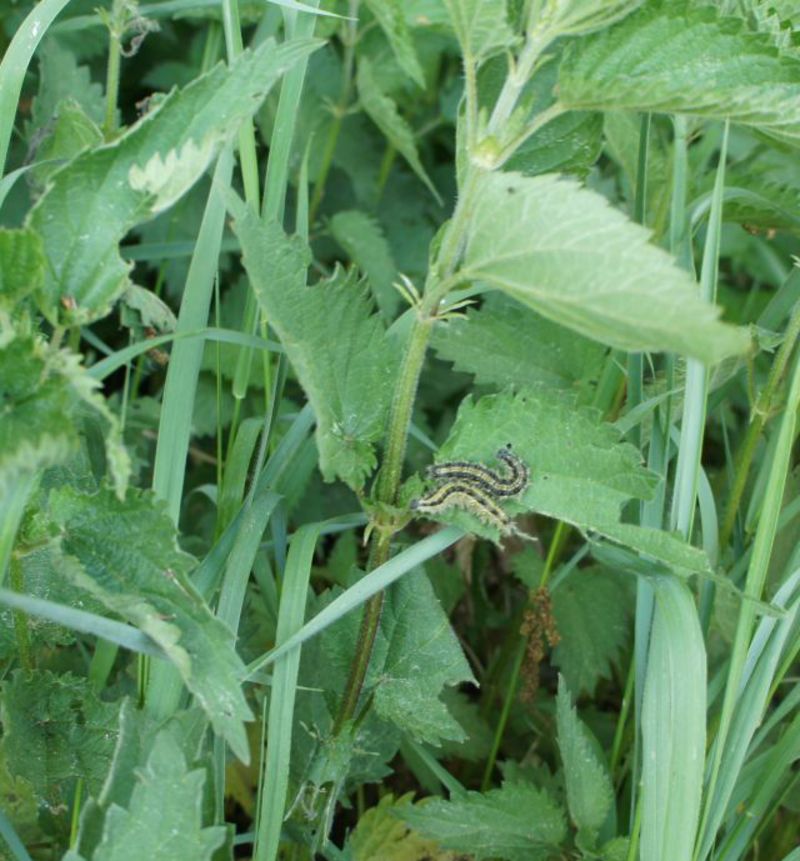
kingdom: Animalia
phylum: Arthropoda
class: Insecta
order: Lepidoptera
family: Nymphalidae
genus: Aglais
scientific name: Aglais urticae
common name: Small tortoiseshell
